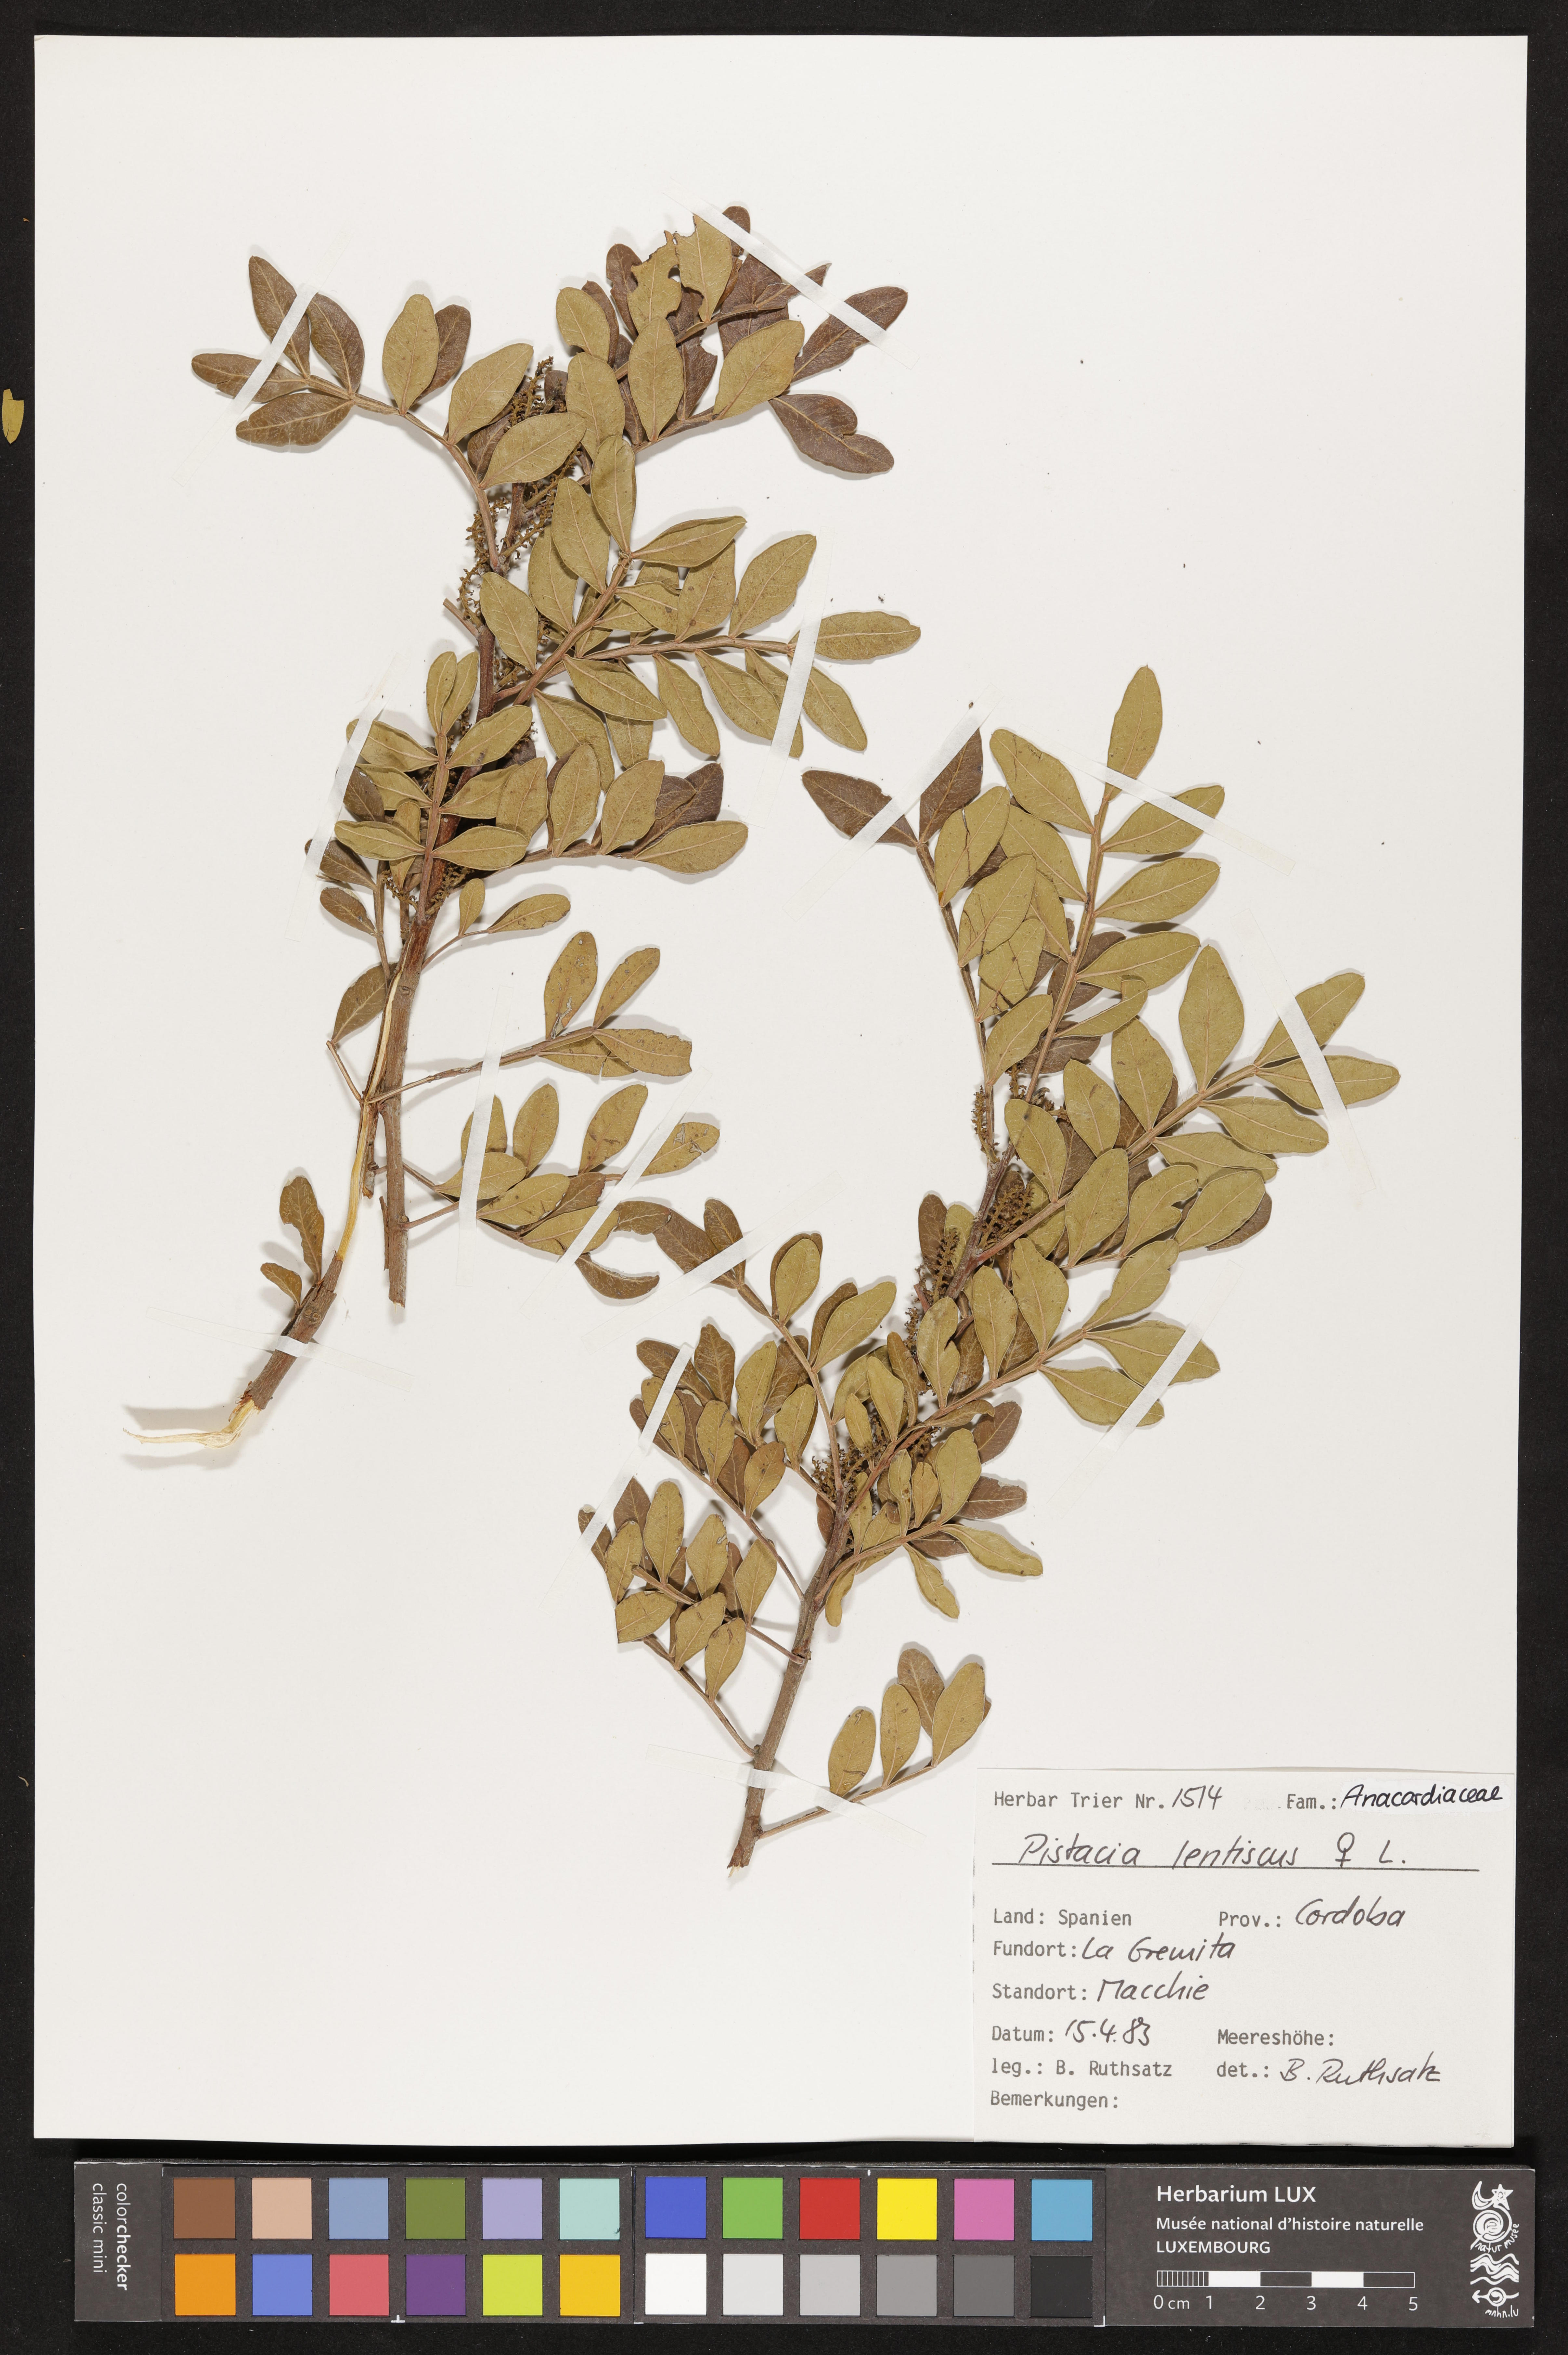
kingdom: Plantae
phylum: Tracheophyta
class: Magnoliopsida
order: Sapindales
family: Anacardiaceae
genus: Pistacia
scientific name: Pistacia lentiscus
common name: Lentisk
